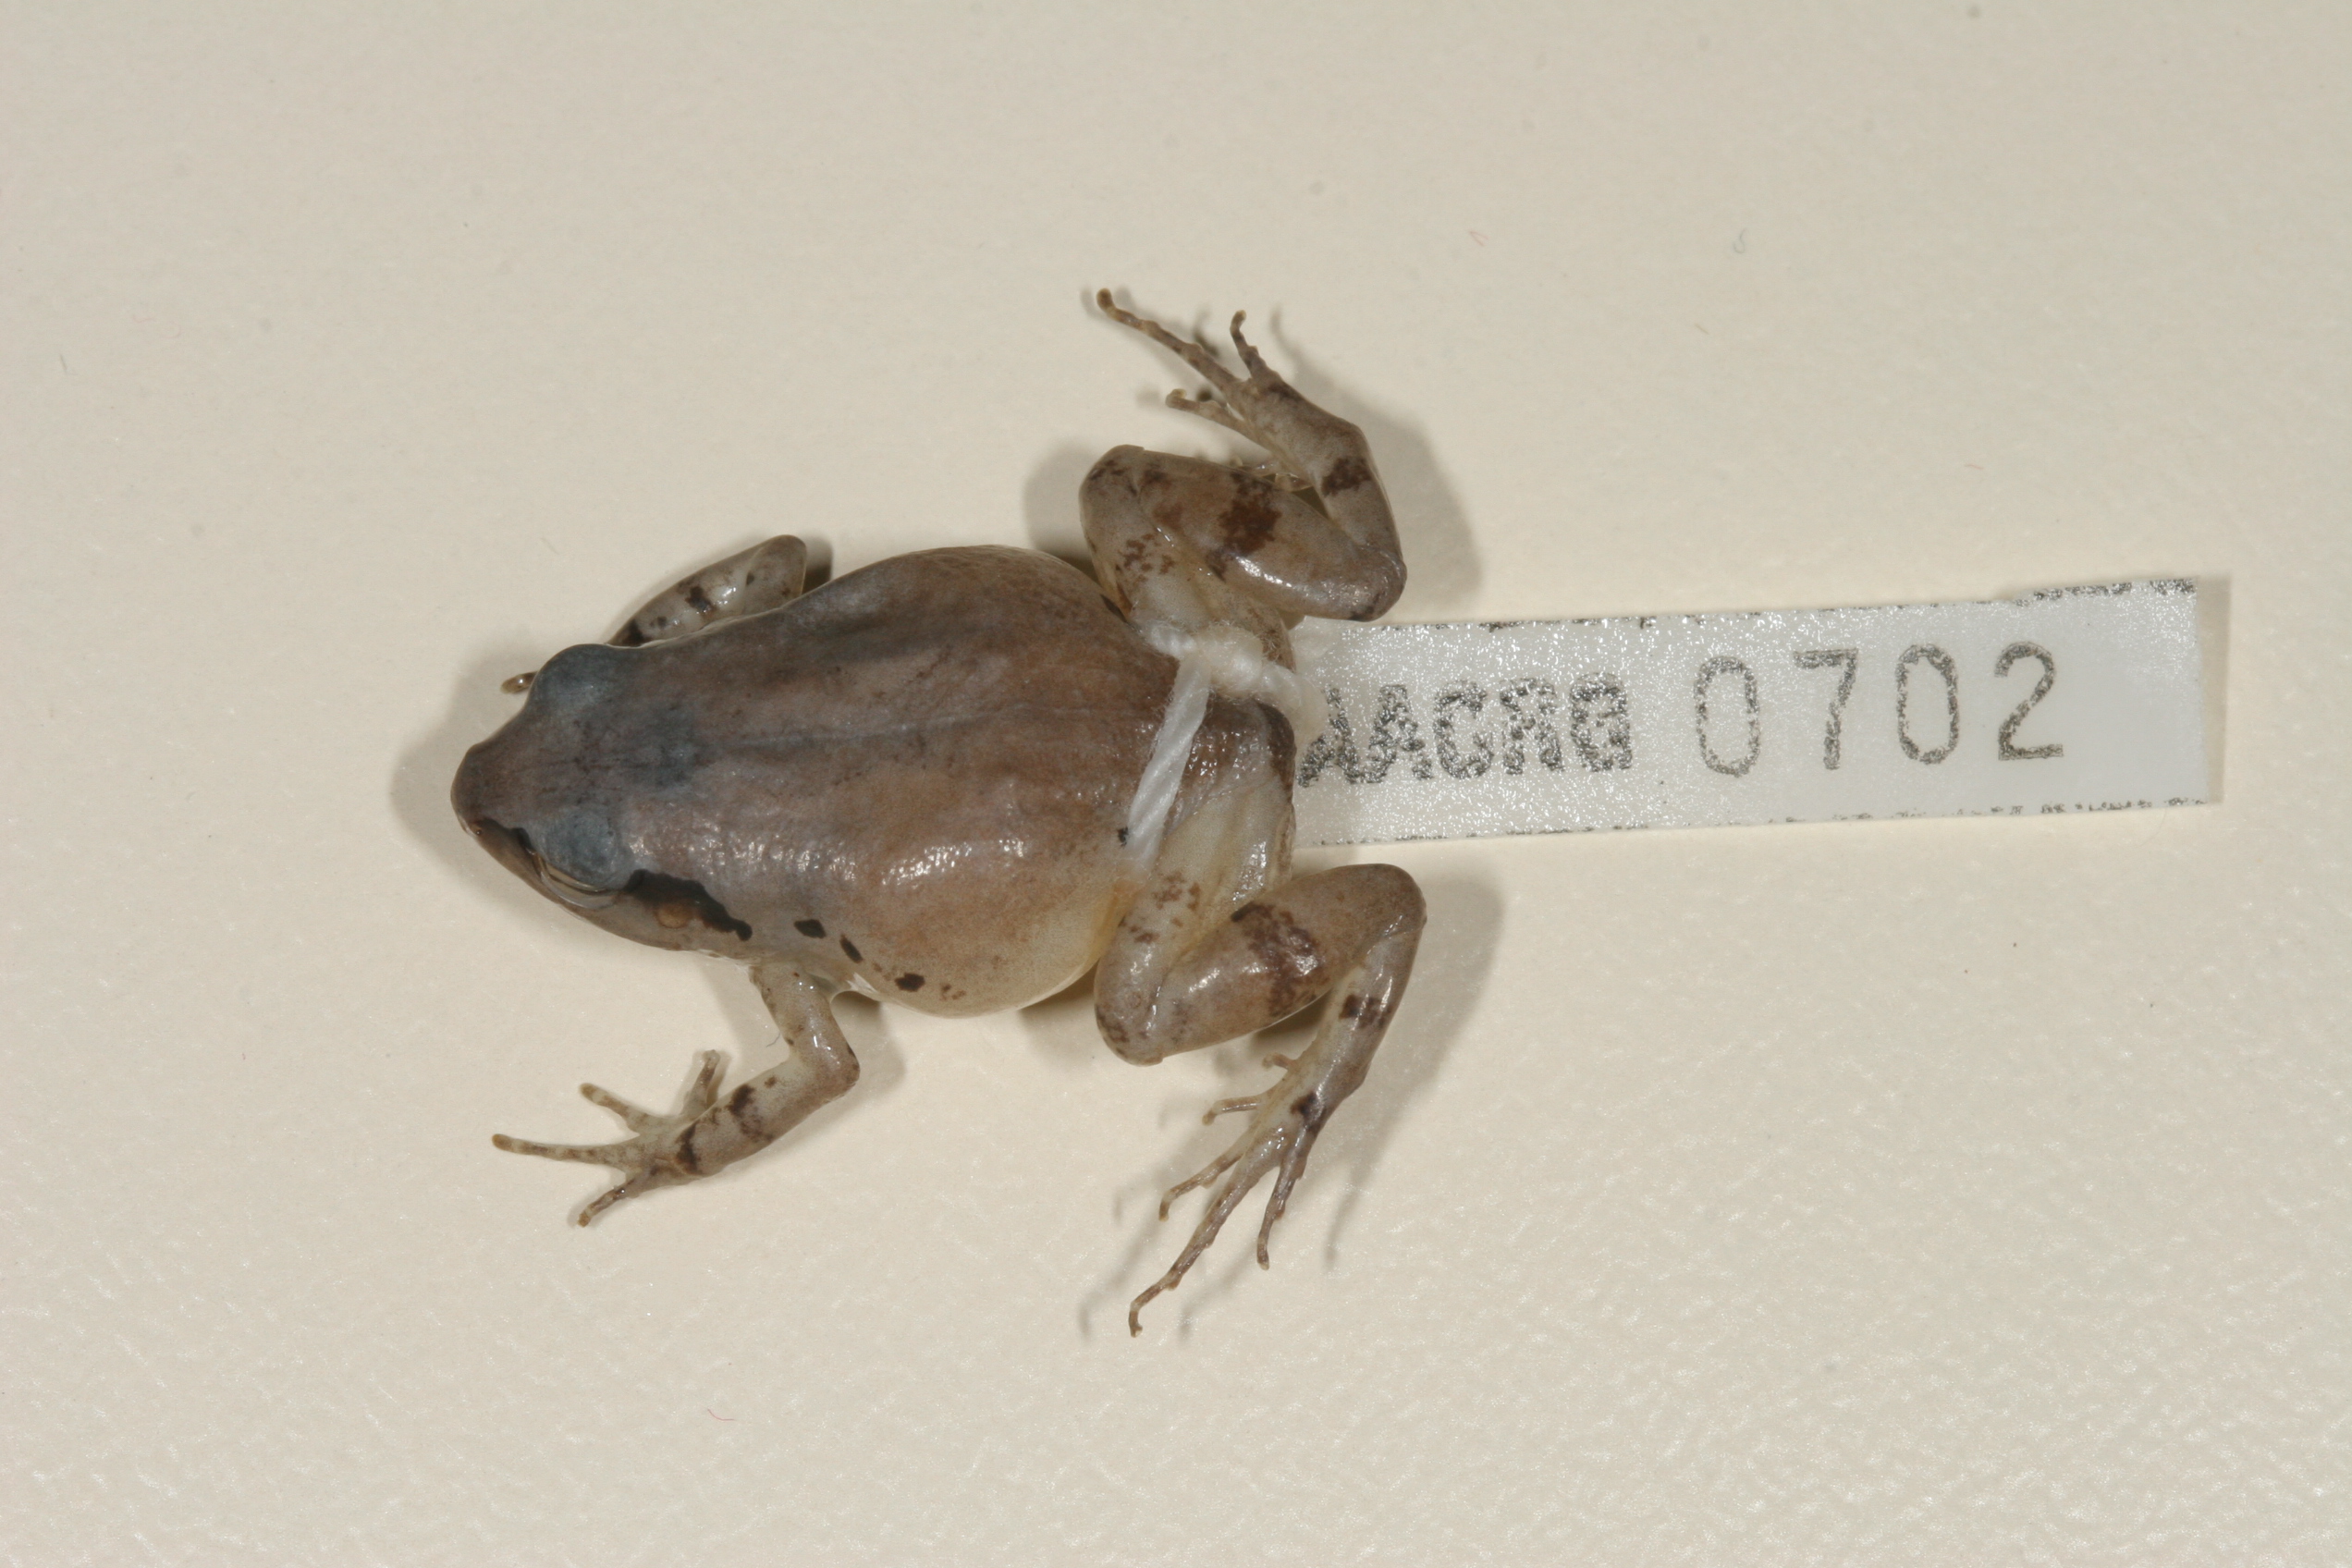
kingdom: Animalia
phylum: Chordata
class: Amphibia
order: Anura
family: Arthroleptidae
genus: Arthroleptis
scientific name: Arthroleptis wahlbergii
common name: Bush squeaker
